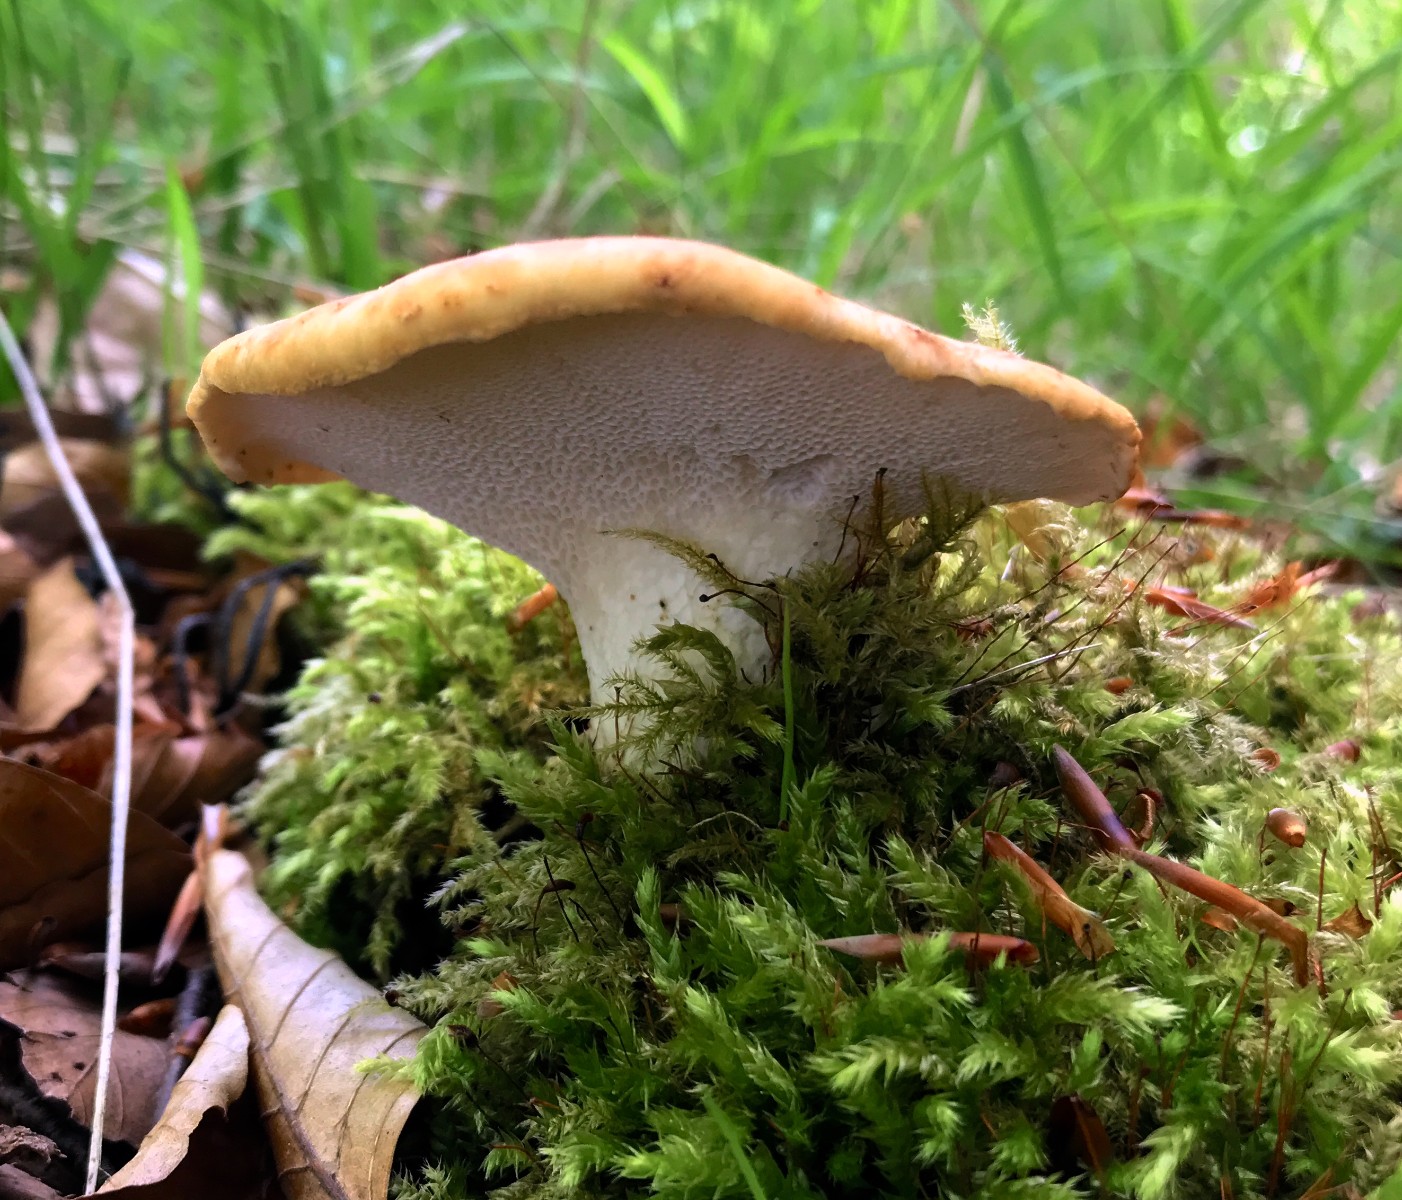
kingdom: Fungi
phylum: Basidiomycota
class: Agaricomycetes
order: Polyporales
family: Polyporaceae
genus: Cerioporus
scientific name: Cerioporus squamosus
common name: skællet stilkporesvamp
